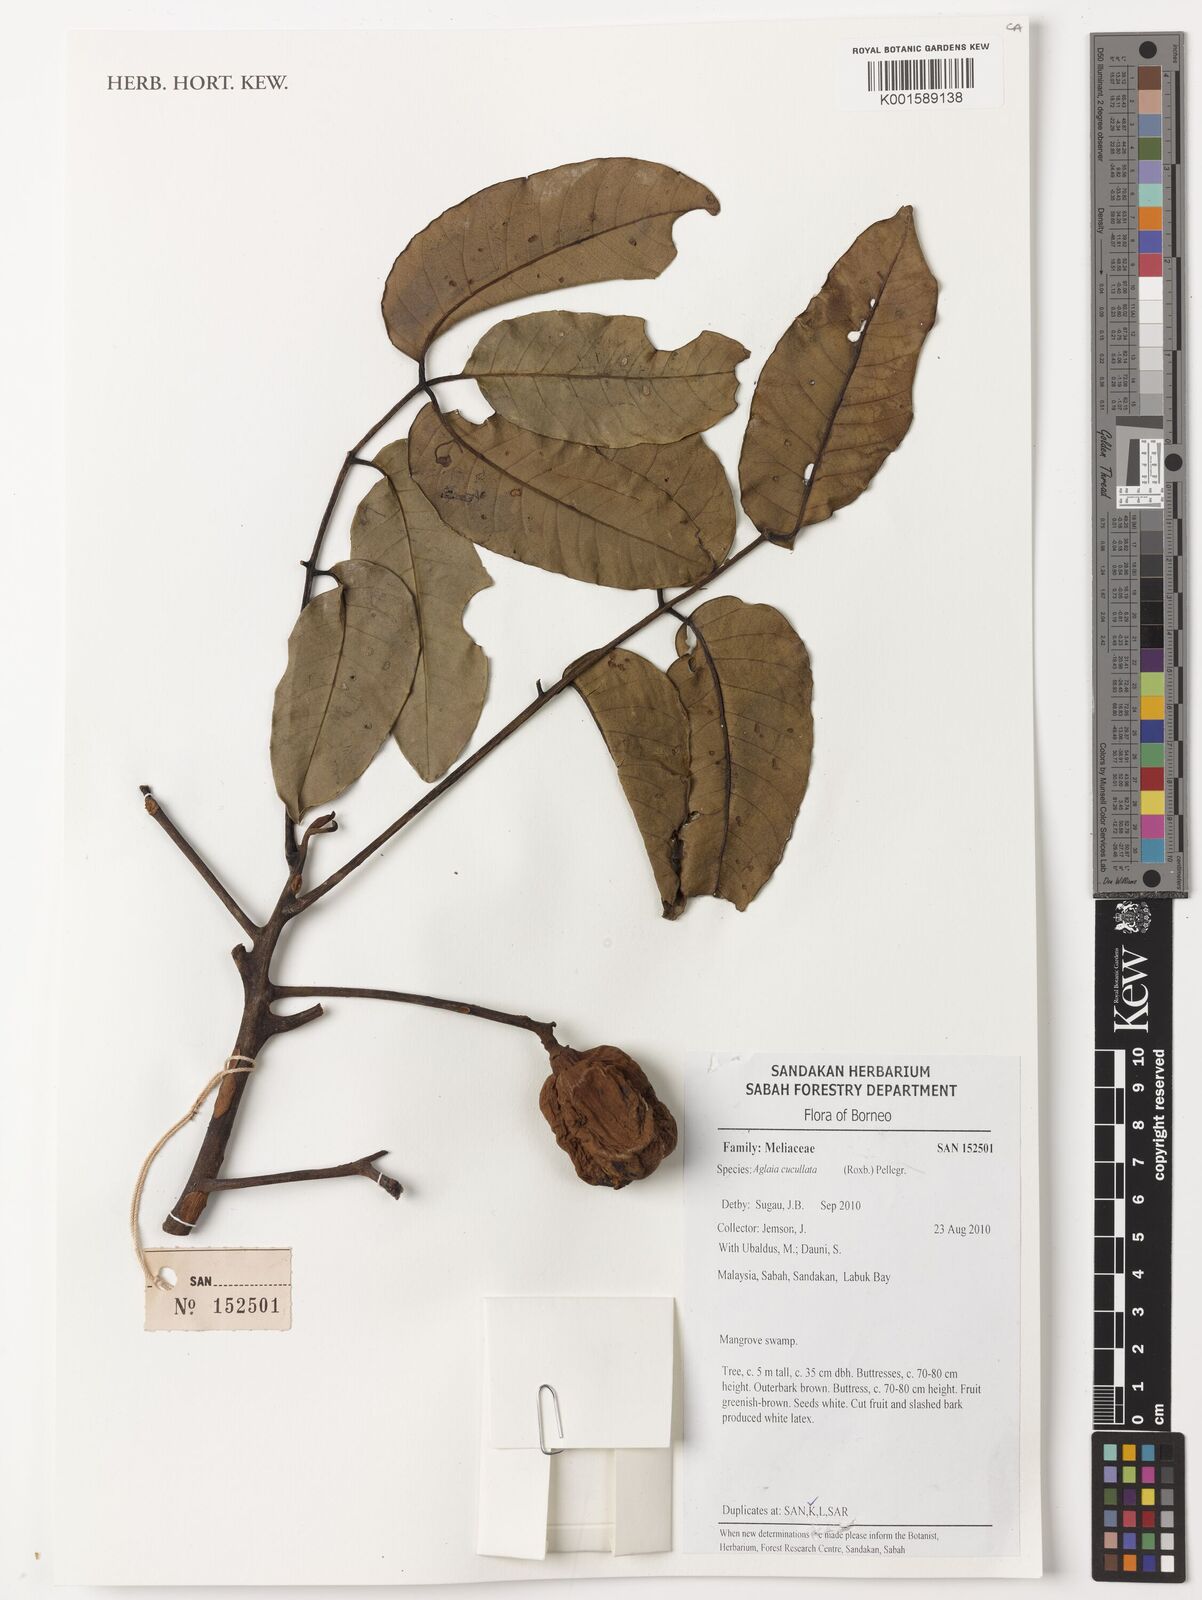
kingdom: Plantae
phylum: Tracheophyta
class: Magnoliopsida
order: Sapindales
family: Meliaceae
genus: Aglaia
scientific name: Aglaia cucullata
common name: Pacific maple
